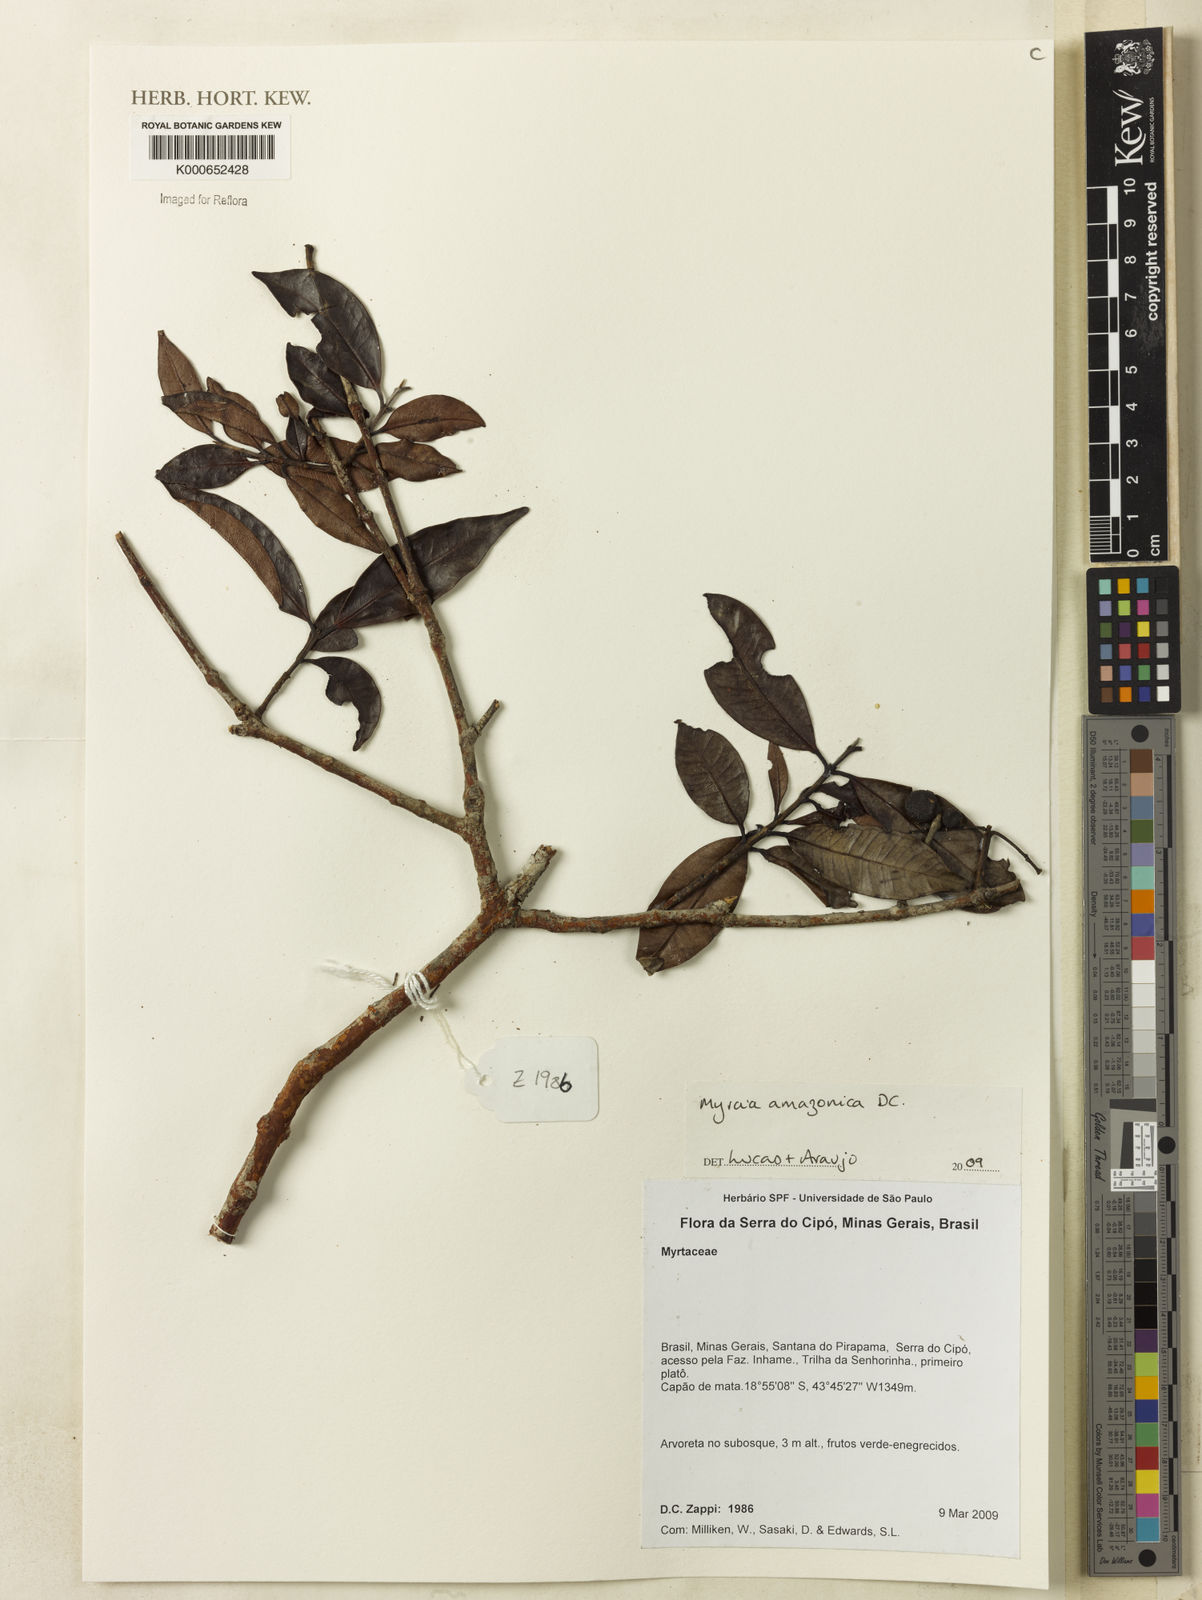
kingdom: Plantae
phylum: Tracheophyta
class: Magnoliopsida
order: Myrtales
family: Myrtaceae
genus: Myrcia
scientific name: Myrcia amazonica
